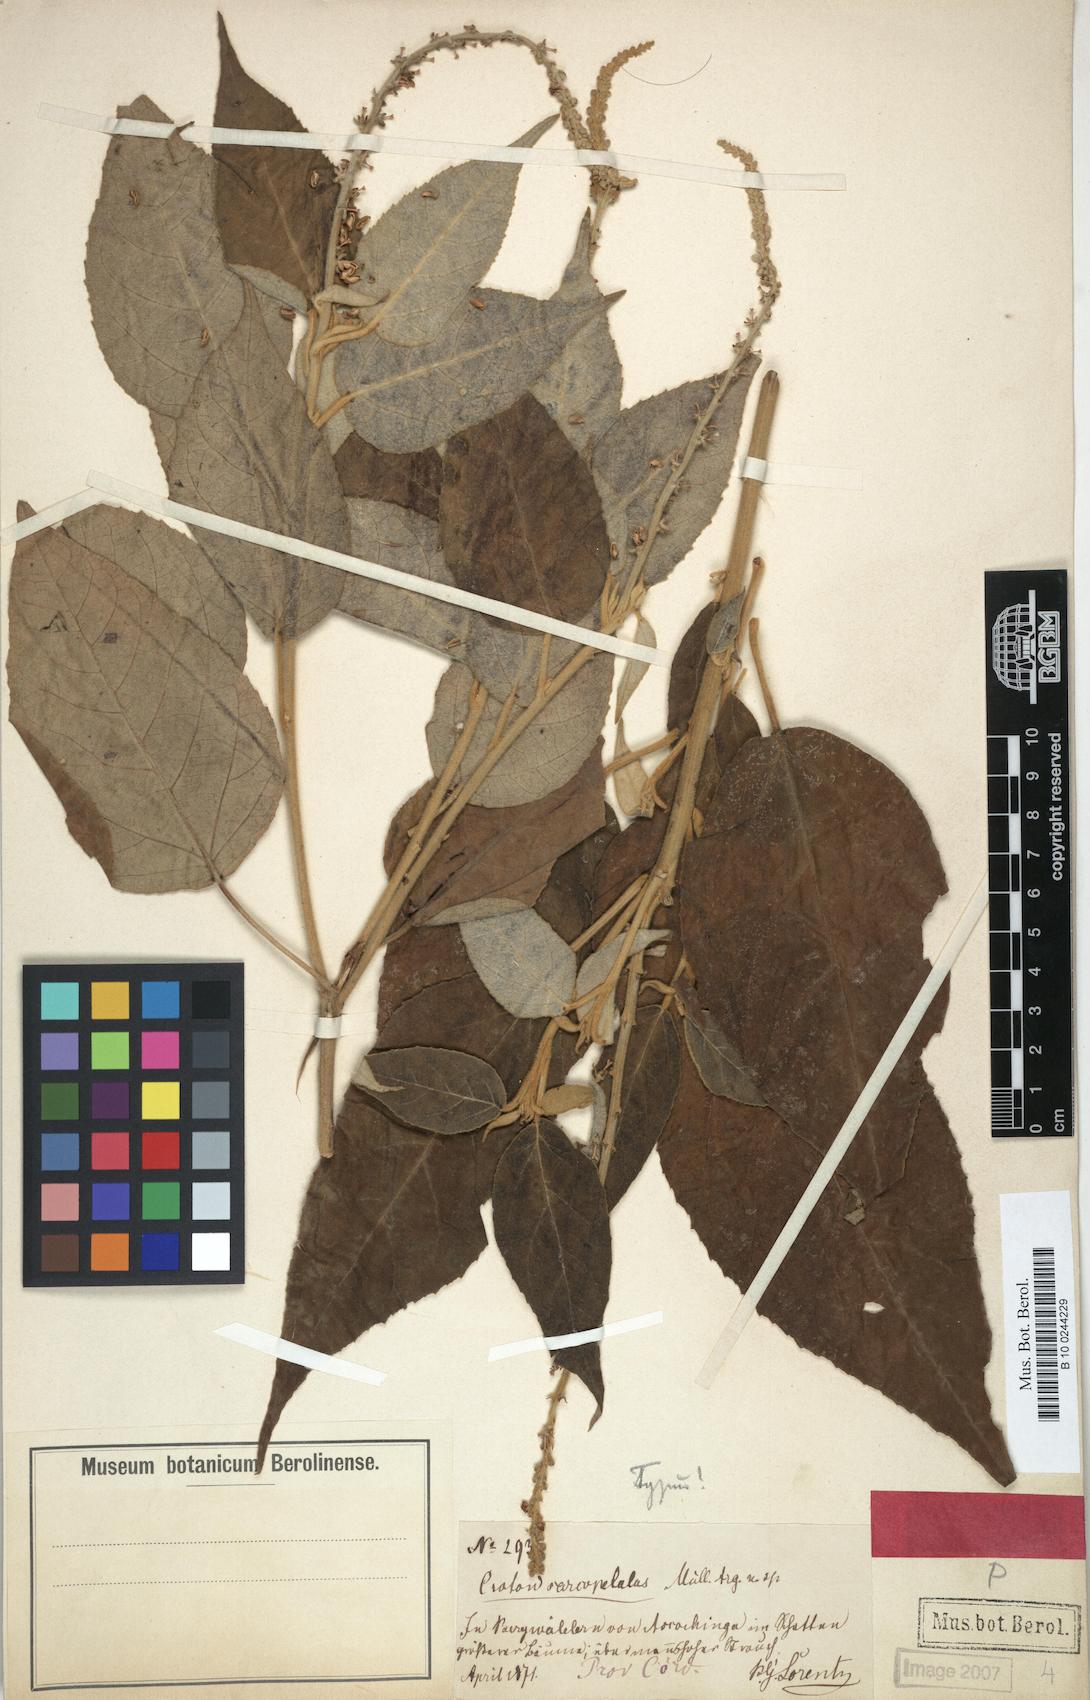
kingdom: Plantae
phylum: Tracheophyta
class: Magnoliopsida
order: Malpighiales
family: Euphorbiaceae
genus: Croton
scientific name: Croton lachnostachyus
